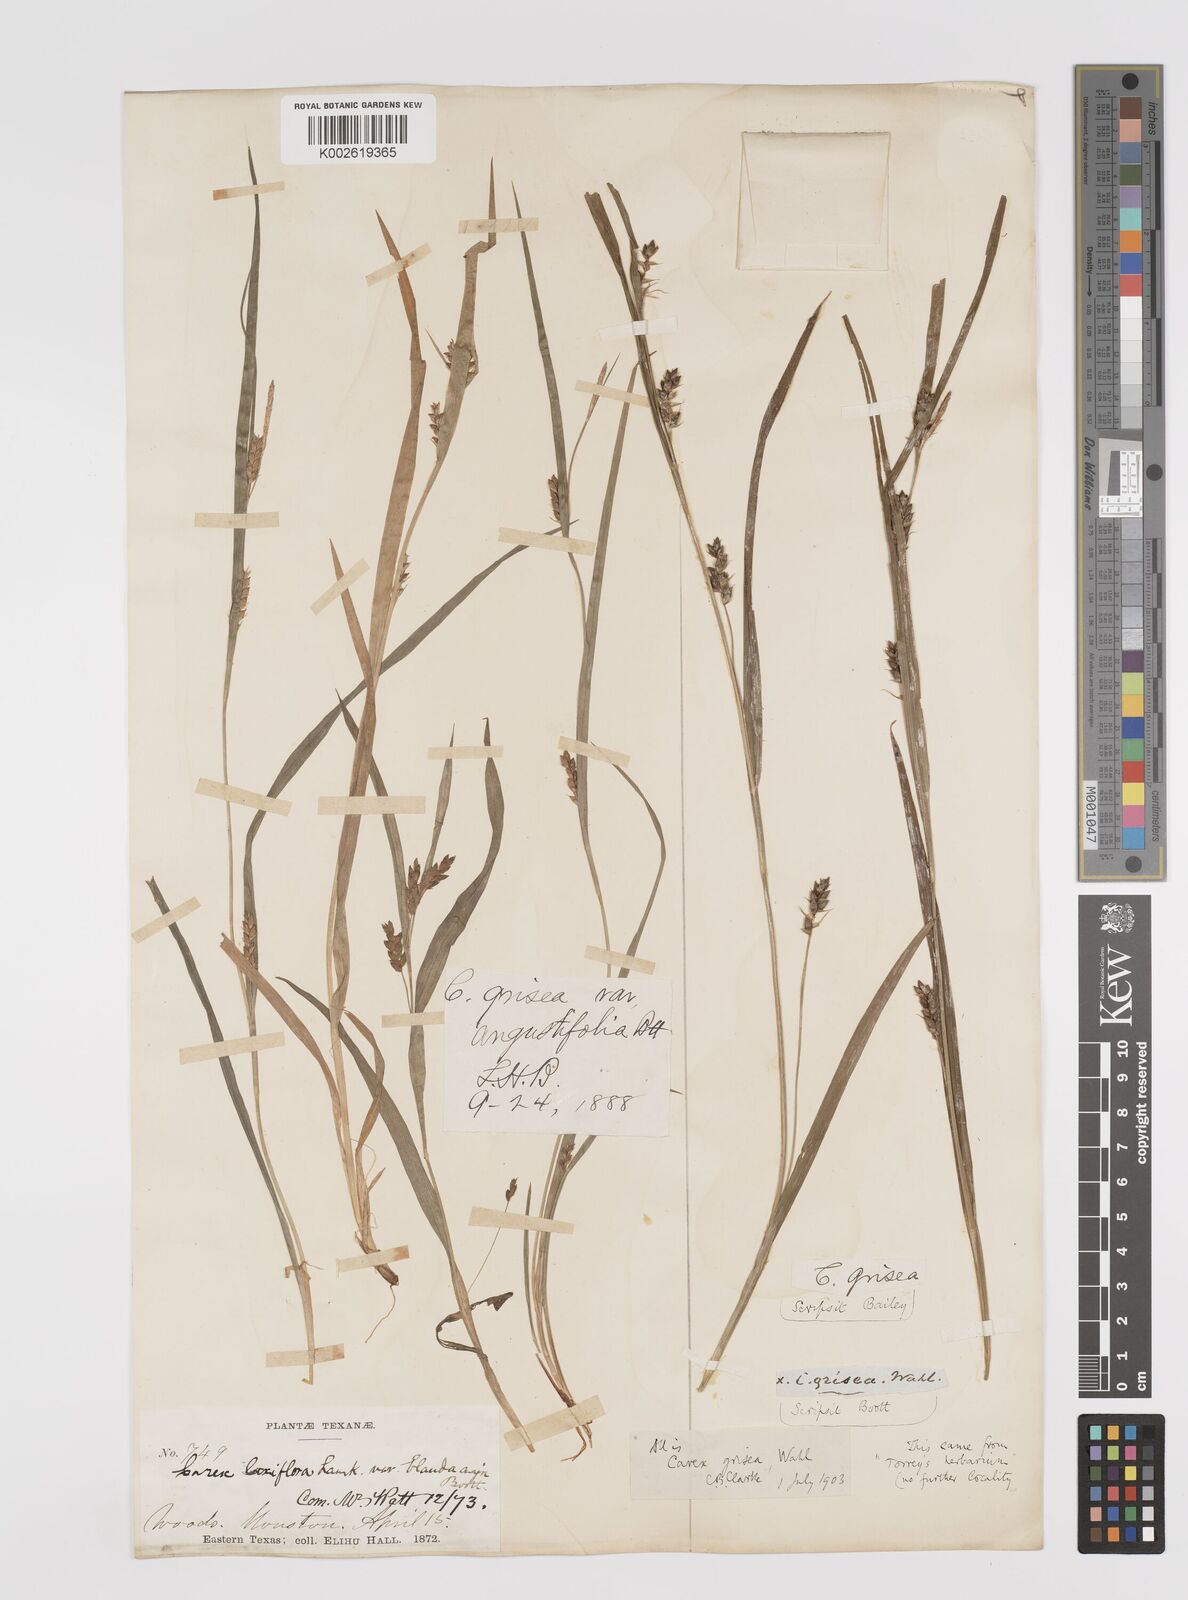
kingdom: Plantae
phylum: Tracheophyta
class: Liliopsida
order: Poales
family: Cyperaceae
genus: Carex
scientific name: Carex grisea
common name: Eastern narrow-leaved sedge
